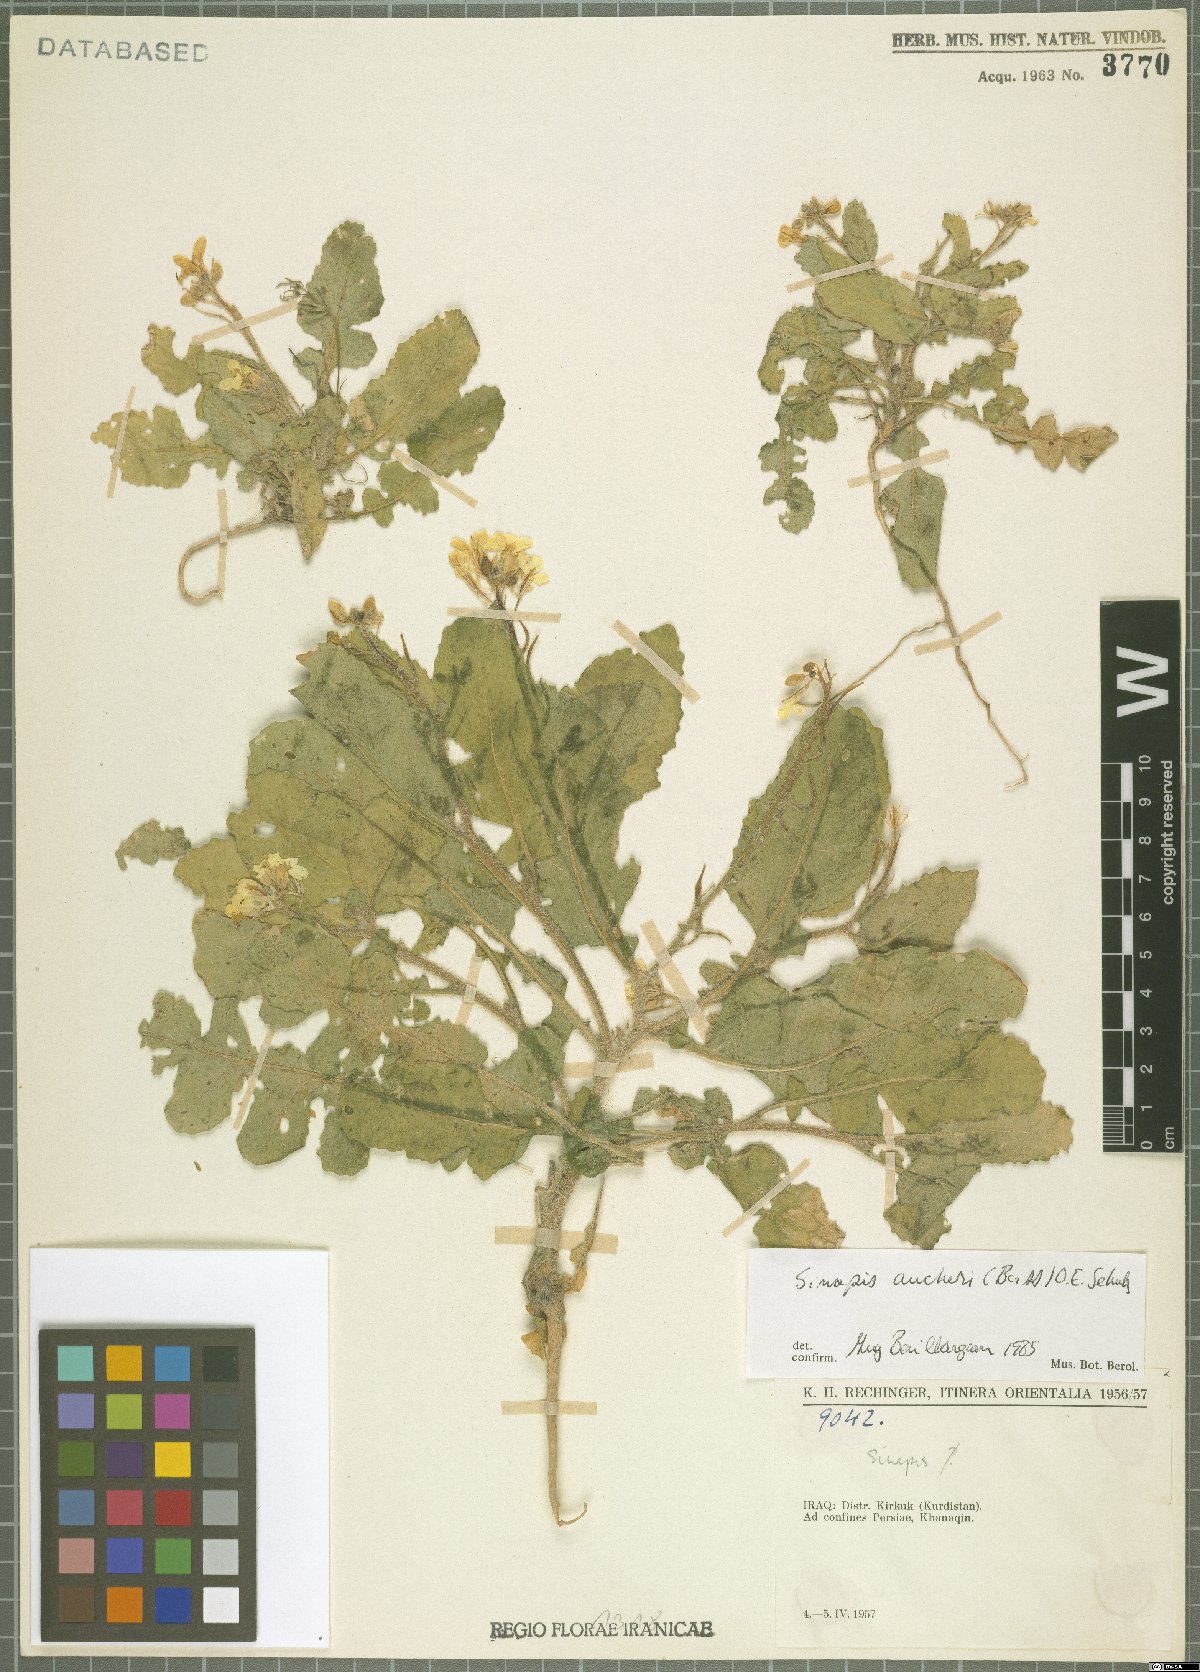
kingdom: Plantae
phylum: Tracheophyta
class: Magnoliopsida
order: Brassicales
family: Brassicaceae
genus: Brassica
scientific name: Brassica aucheri
